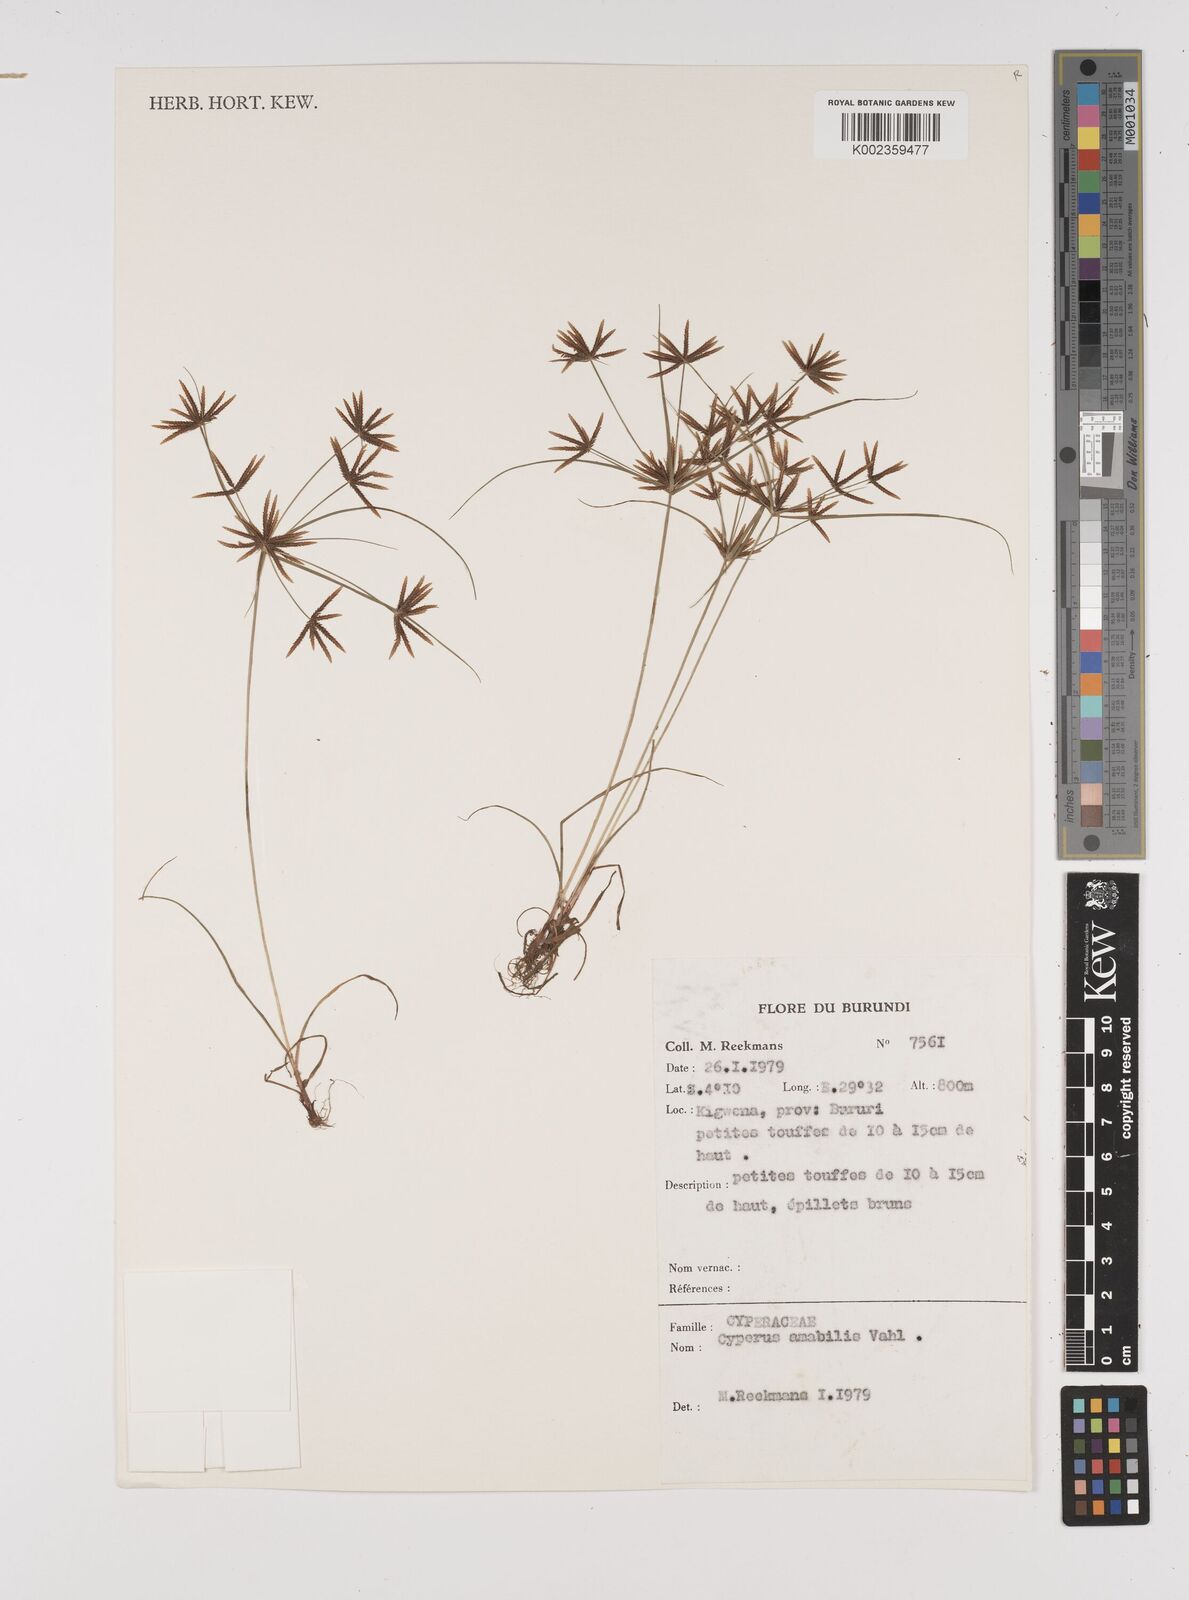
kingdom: Plantae
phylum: Tracheophyta
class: Liliopsida
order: Poales
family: Cyperaceae
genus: Cyperus
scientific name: Cyperus amabilis
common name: Foothill flat sedge
